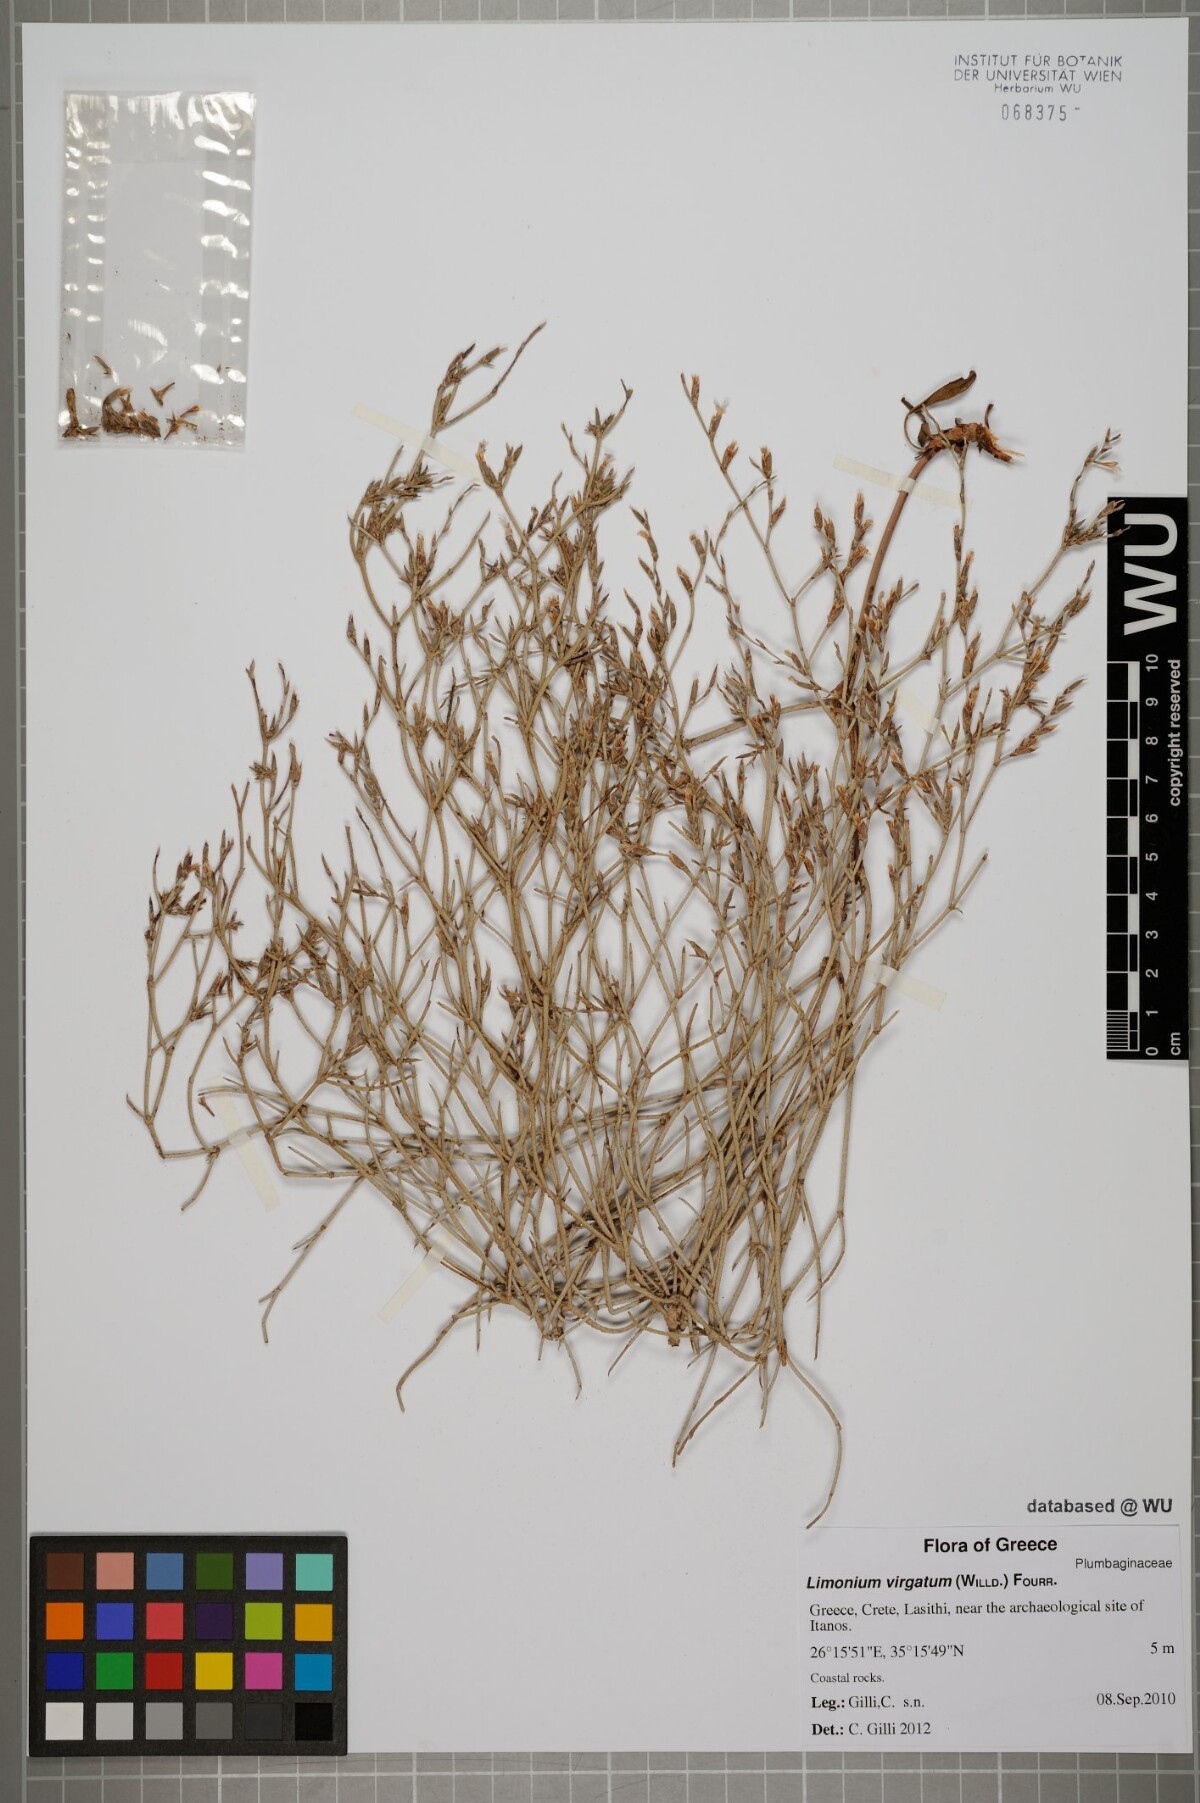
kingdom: Plantae
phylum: Tracheophyta
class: Magnoliopsida
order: Caryophyllales
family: Plumbaginaceae
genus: Limonium
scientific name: Limonium virgatum
